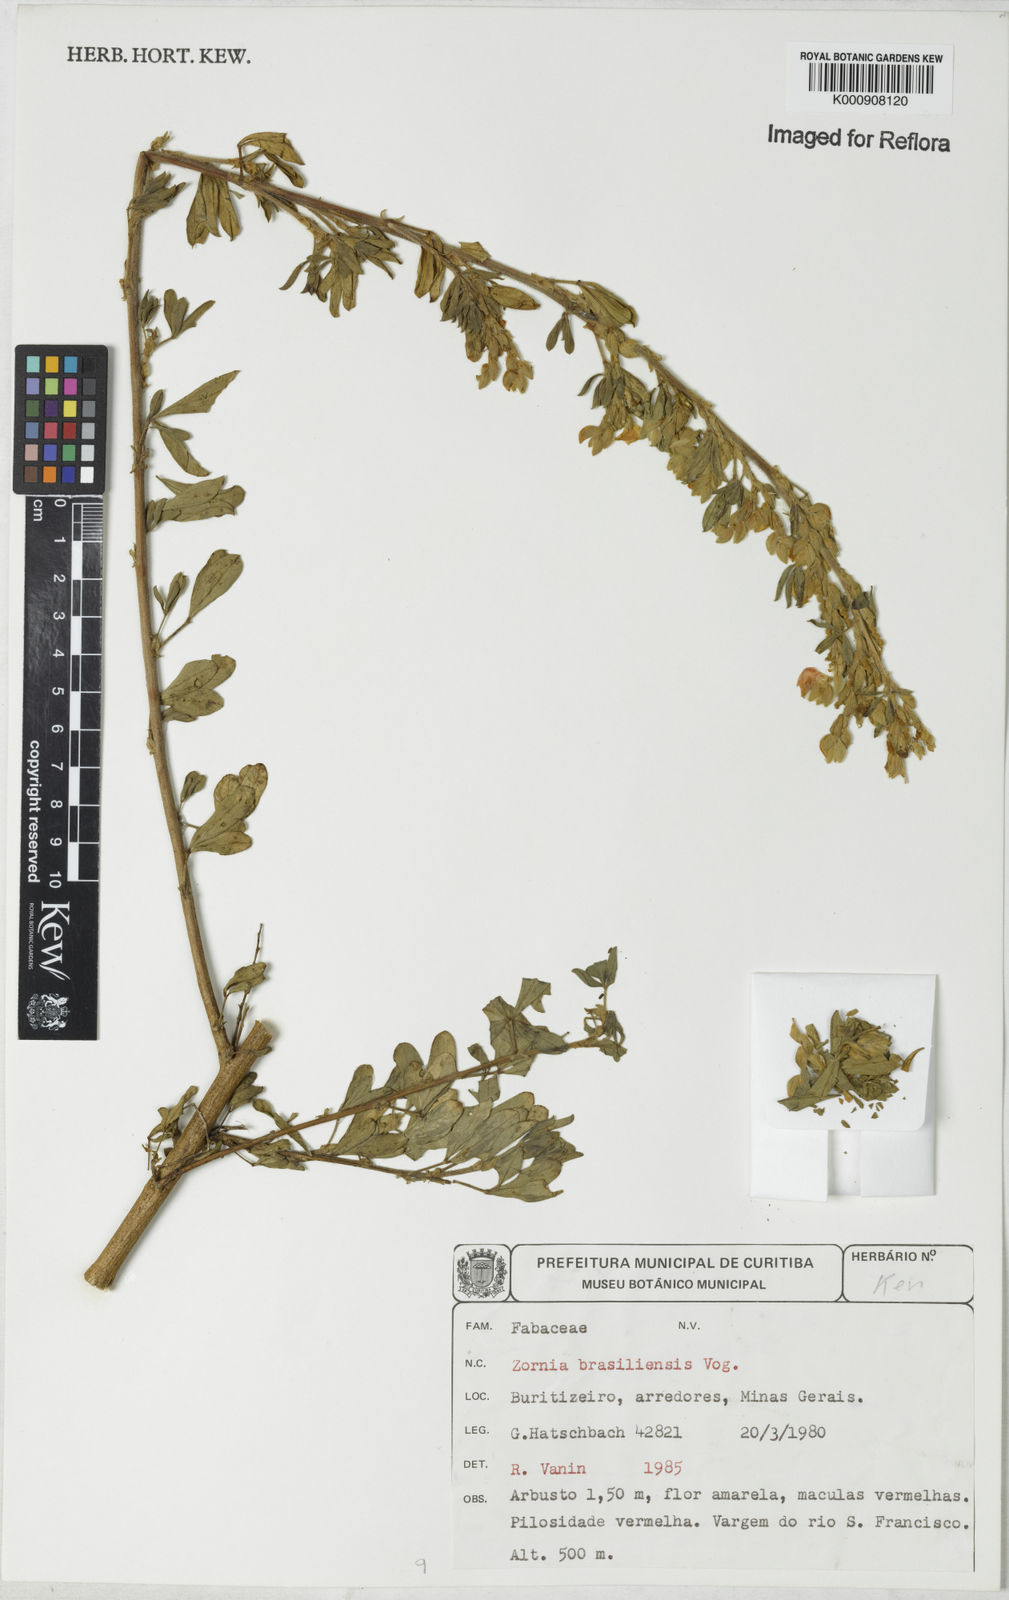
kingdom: Plantae
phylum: Tracheophyta
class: Magnoliopsida
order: Fabales
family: Fabaceae
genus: Zornia
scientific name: Zornia brasiliensis
